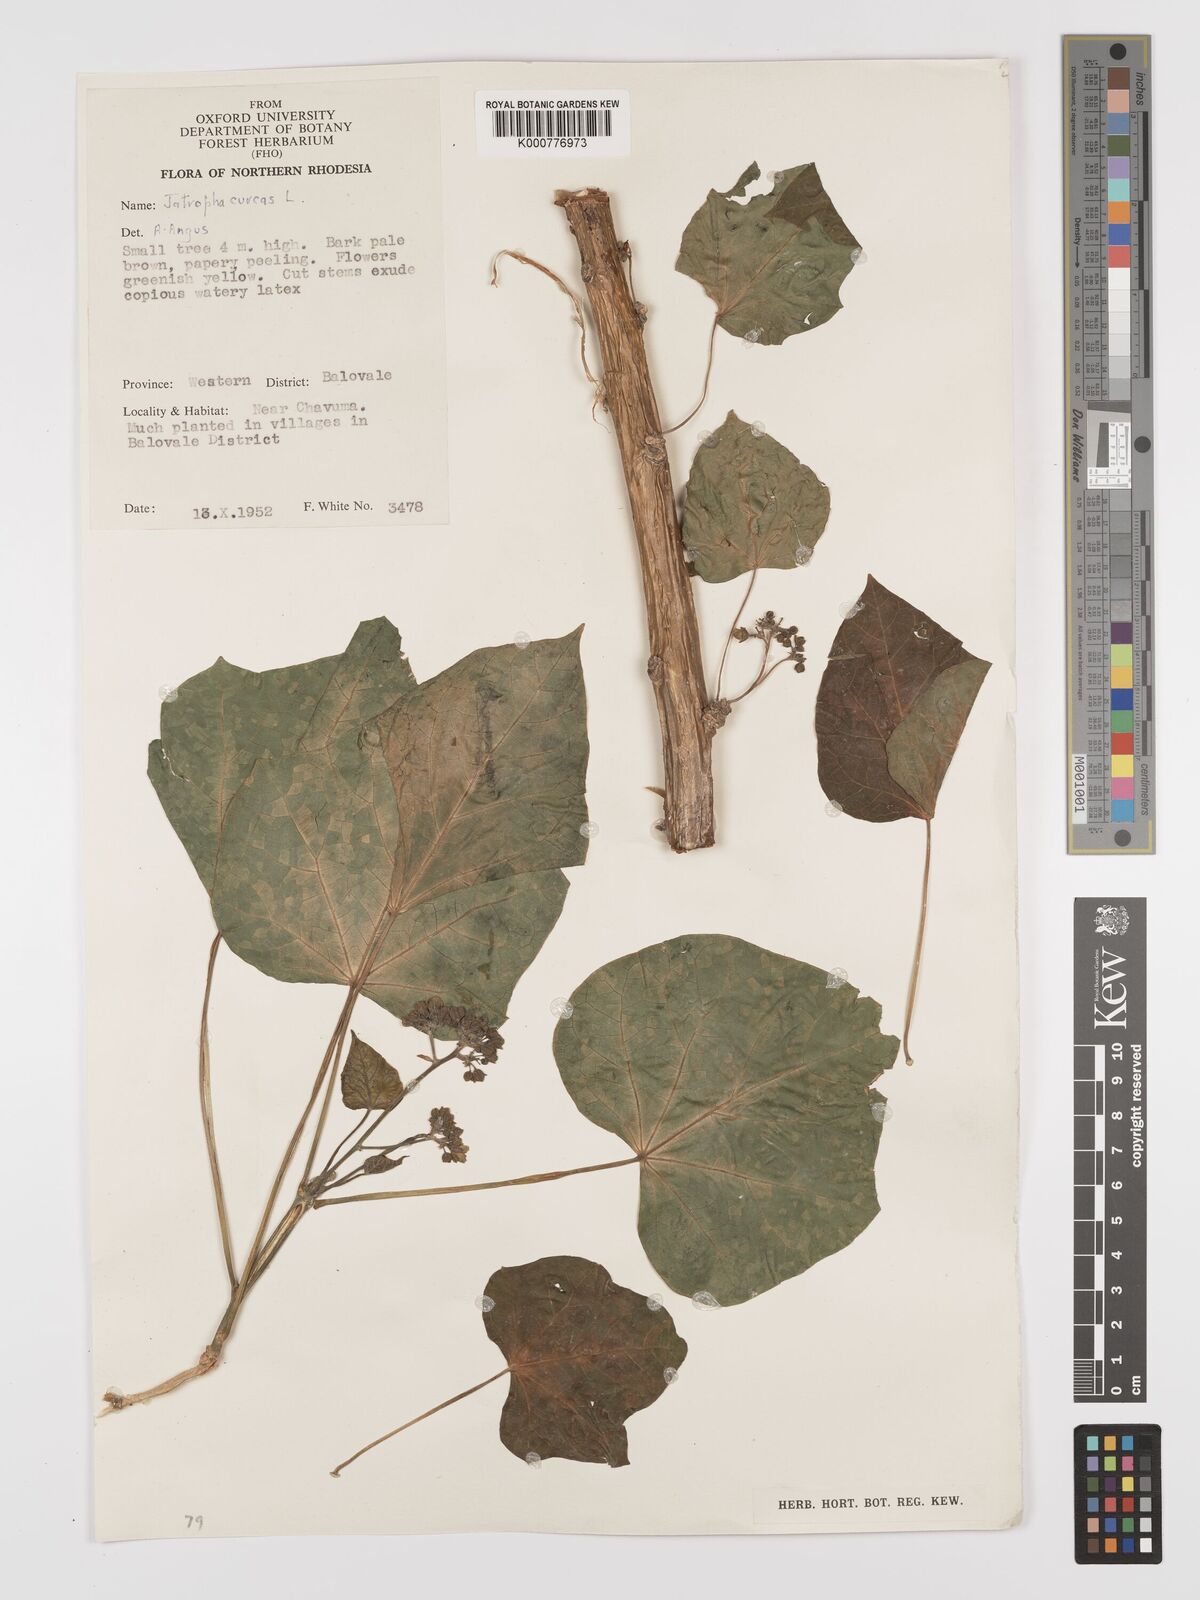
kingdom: Plantae
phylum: Tracheophyta
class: Magnoliopsida
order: Malpighiales
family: Euphorbiaceae
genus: Jatropha
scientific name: Jatropha curcas
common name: Barbados nut
